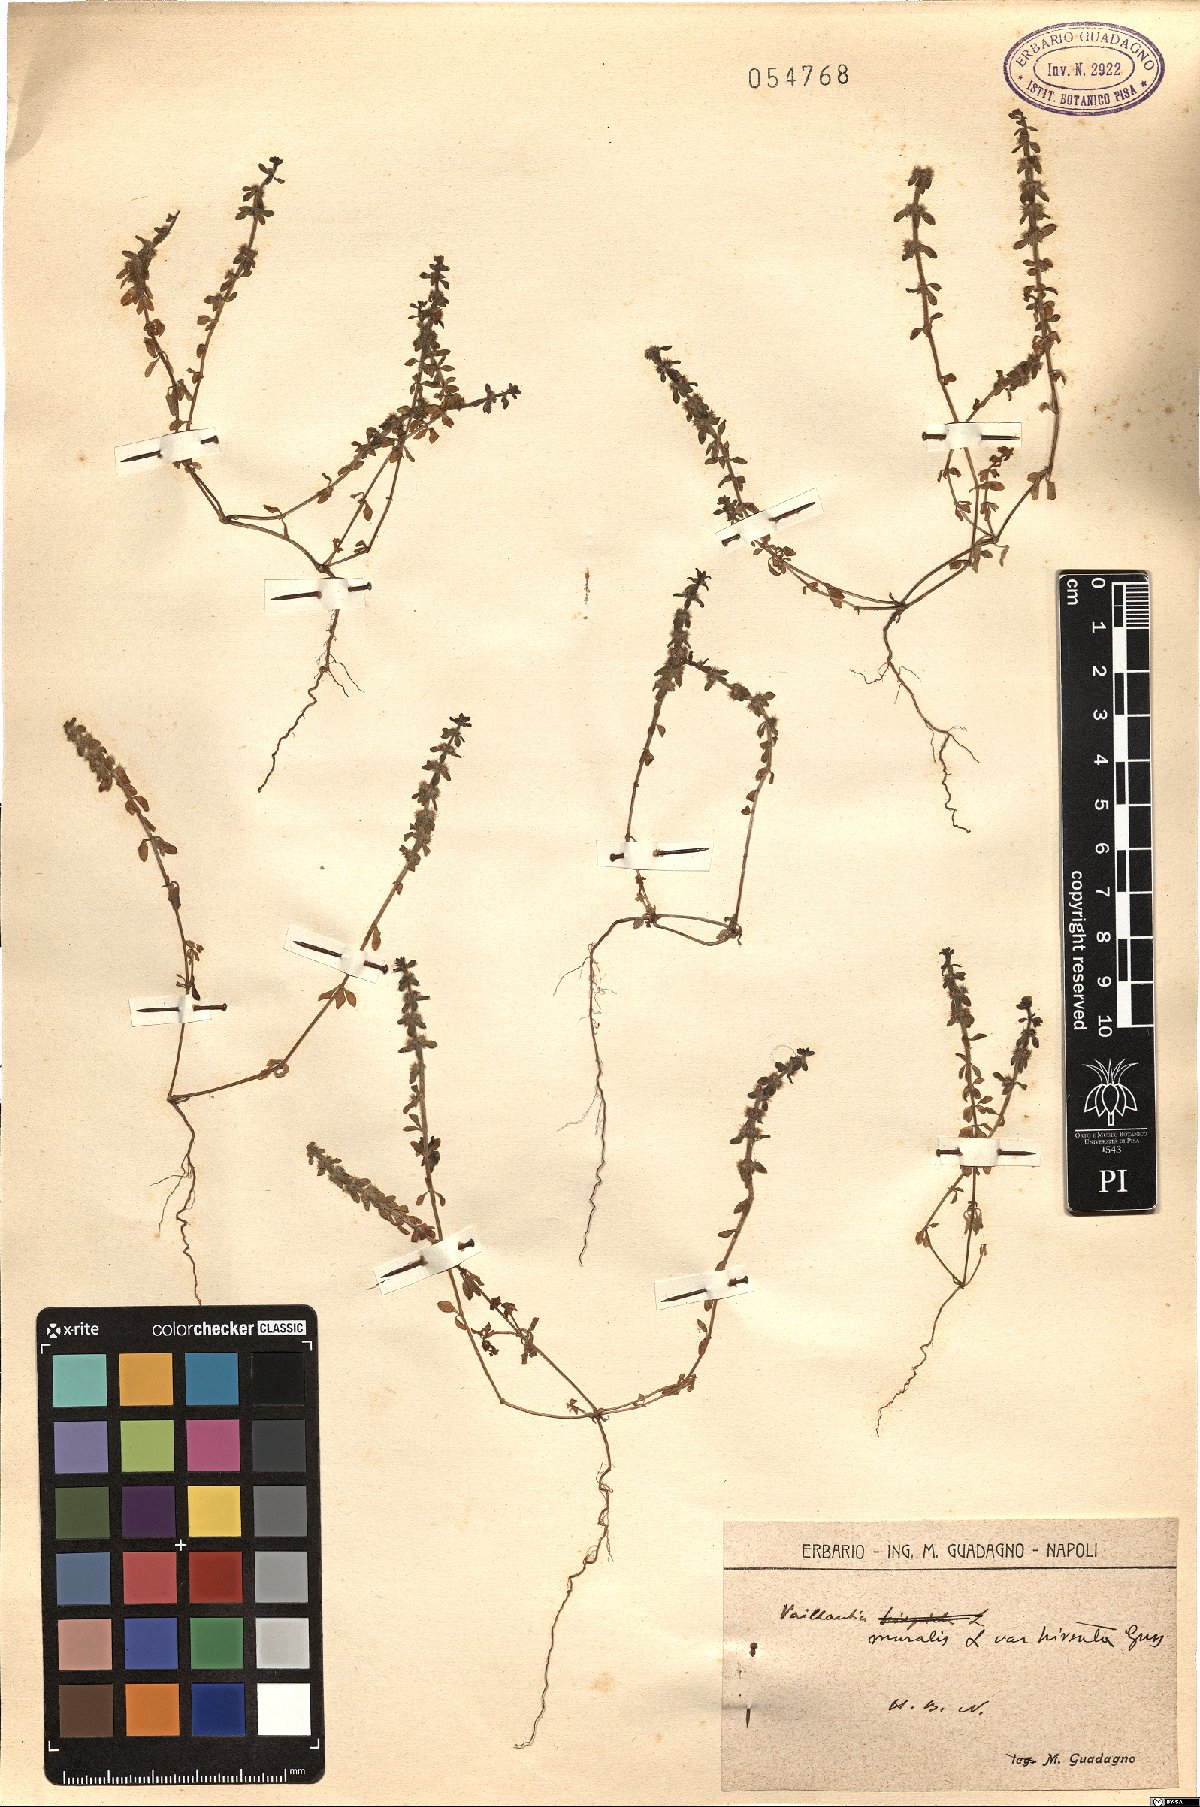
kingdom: Plantae
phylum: Tracheophyta
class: Magnoliopsida
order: Gentianales
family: Rubiaceae
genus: Valantia
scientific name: Valantia muralis
